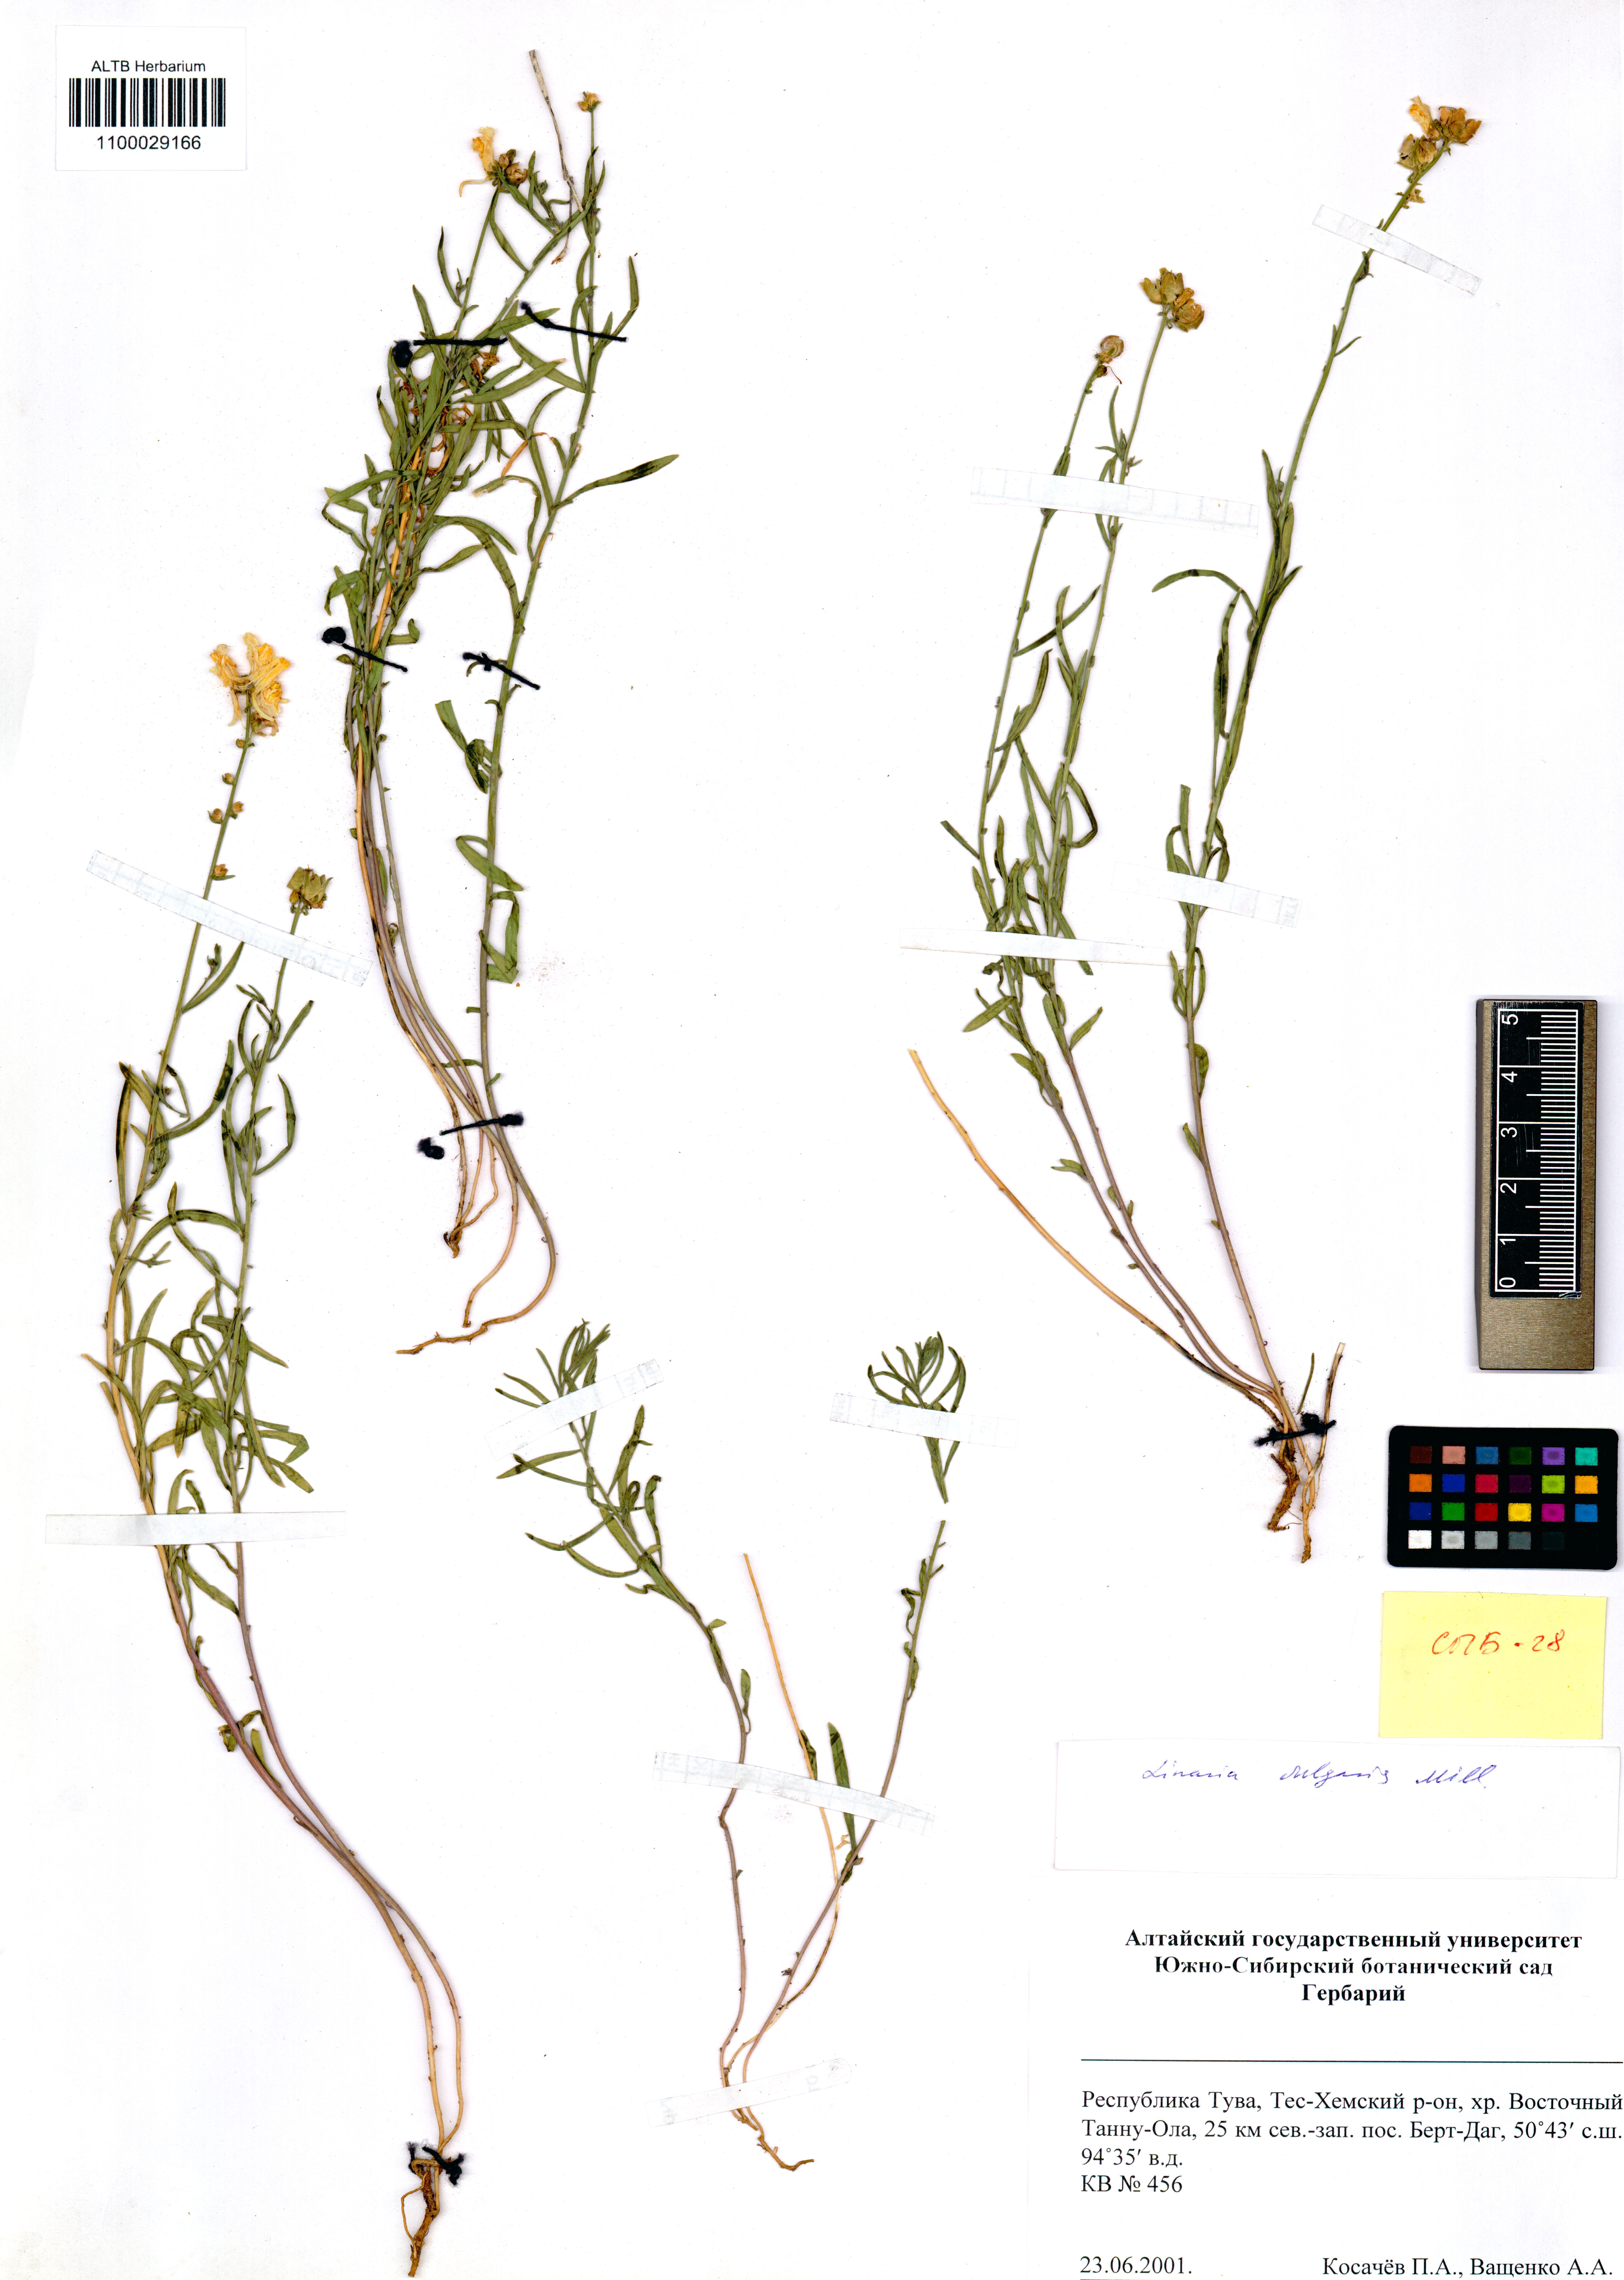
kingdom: Plantae
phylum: Tracheophyta
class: Magnoliopsida
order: Lamiales
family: Plantaginaceae
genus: Linaria
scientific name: Linaria vulgaris
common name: Butter and eggs
